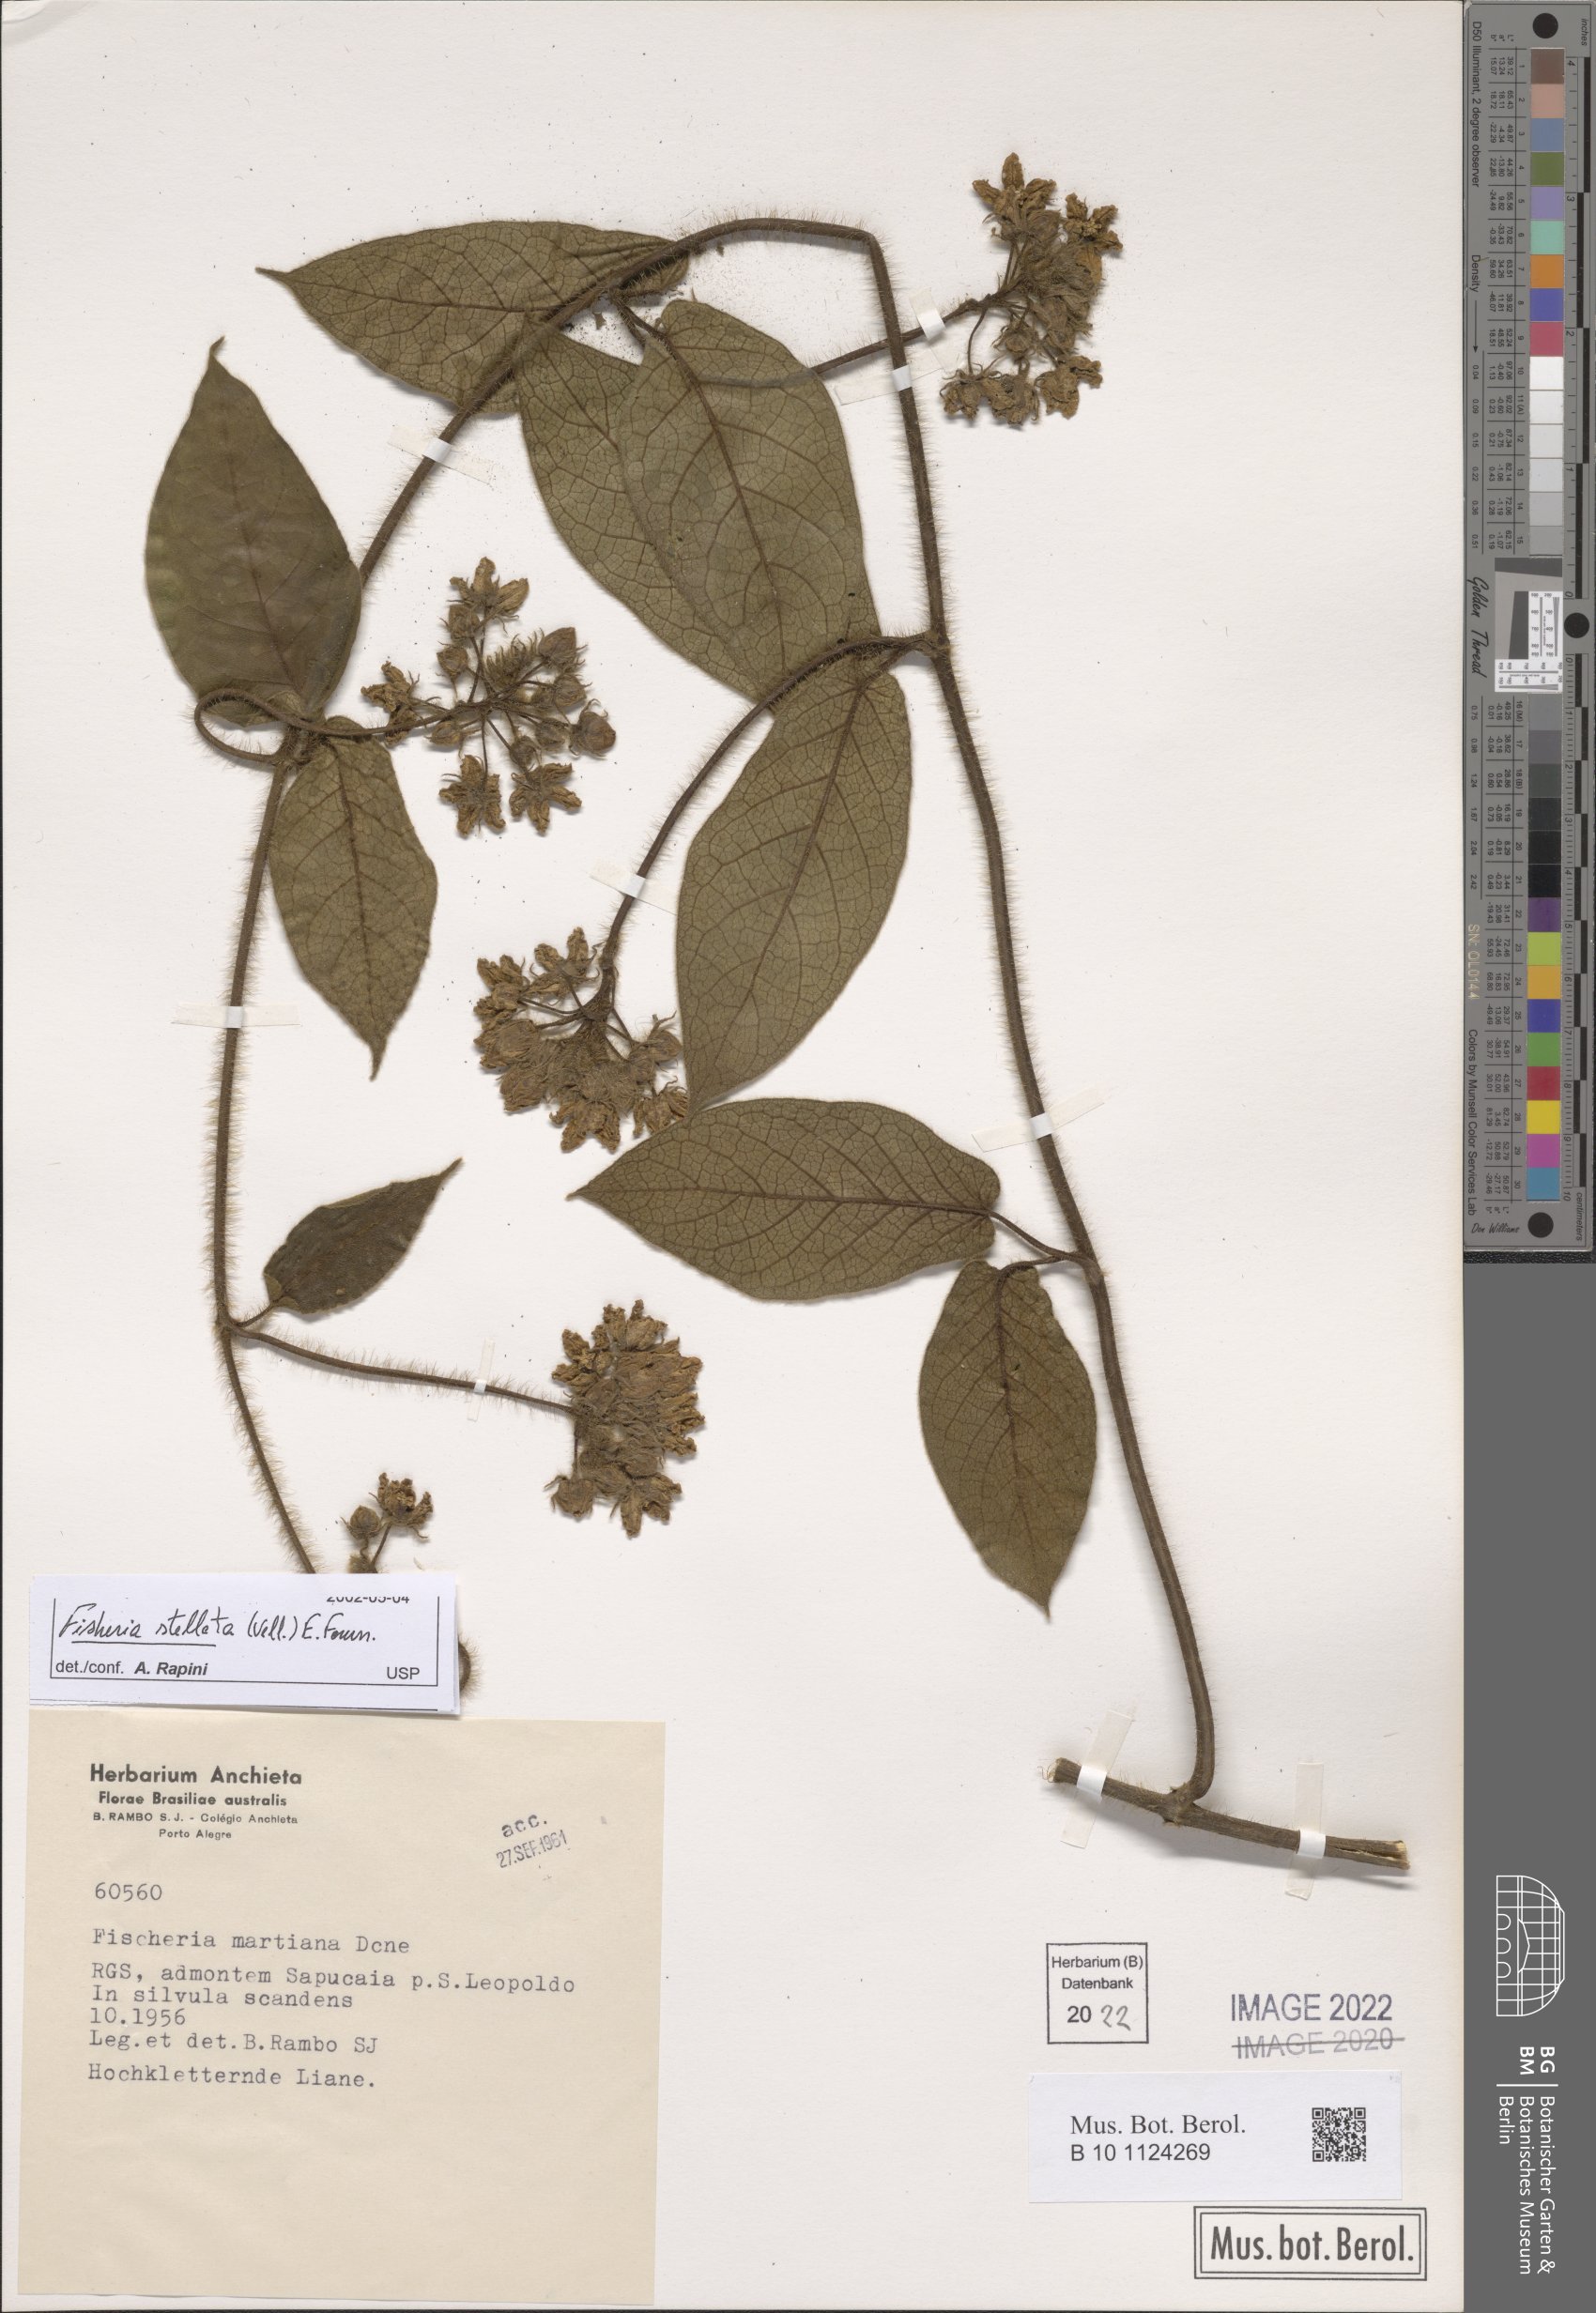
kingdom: Plantae
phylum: Tracheophyta
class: Magnoliopsida
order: Gentianales
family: Apocynaceae
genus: Fischeria
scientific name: Fischeria stellata
